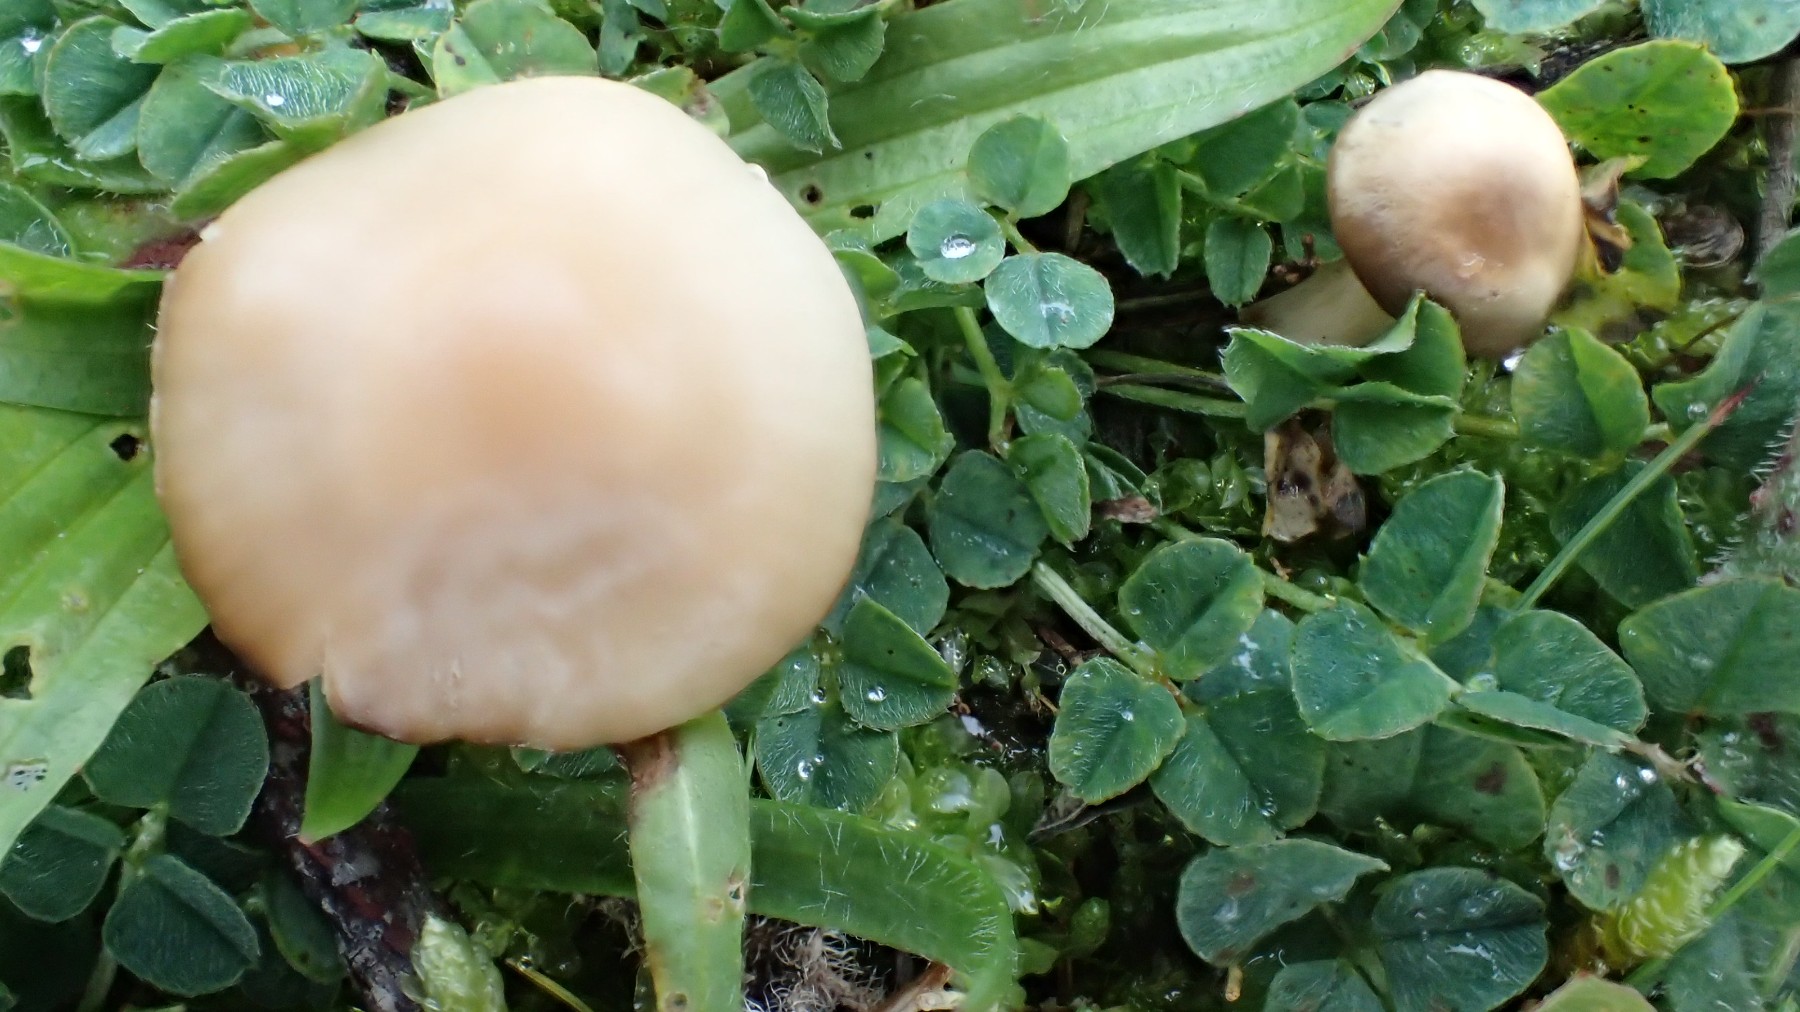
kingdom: Fungi
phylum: Basidiomycota
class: Agaricomycetes
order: Agaricales
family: Hygrophoraceae
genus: Cuphophyllus
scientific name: Cuphophyllus virgineus
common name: isabella-vokshat
